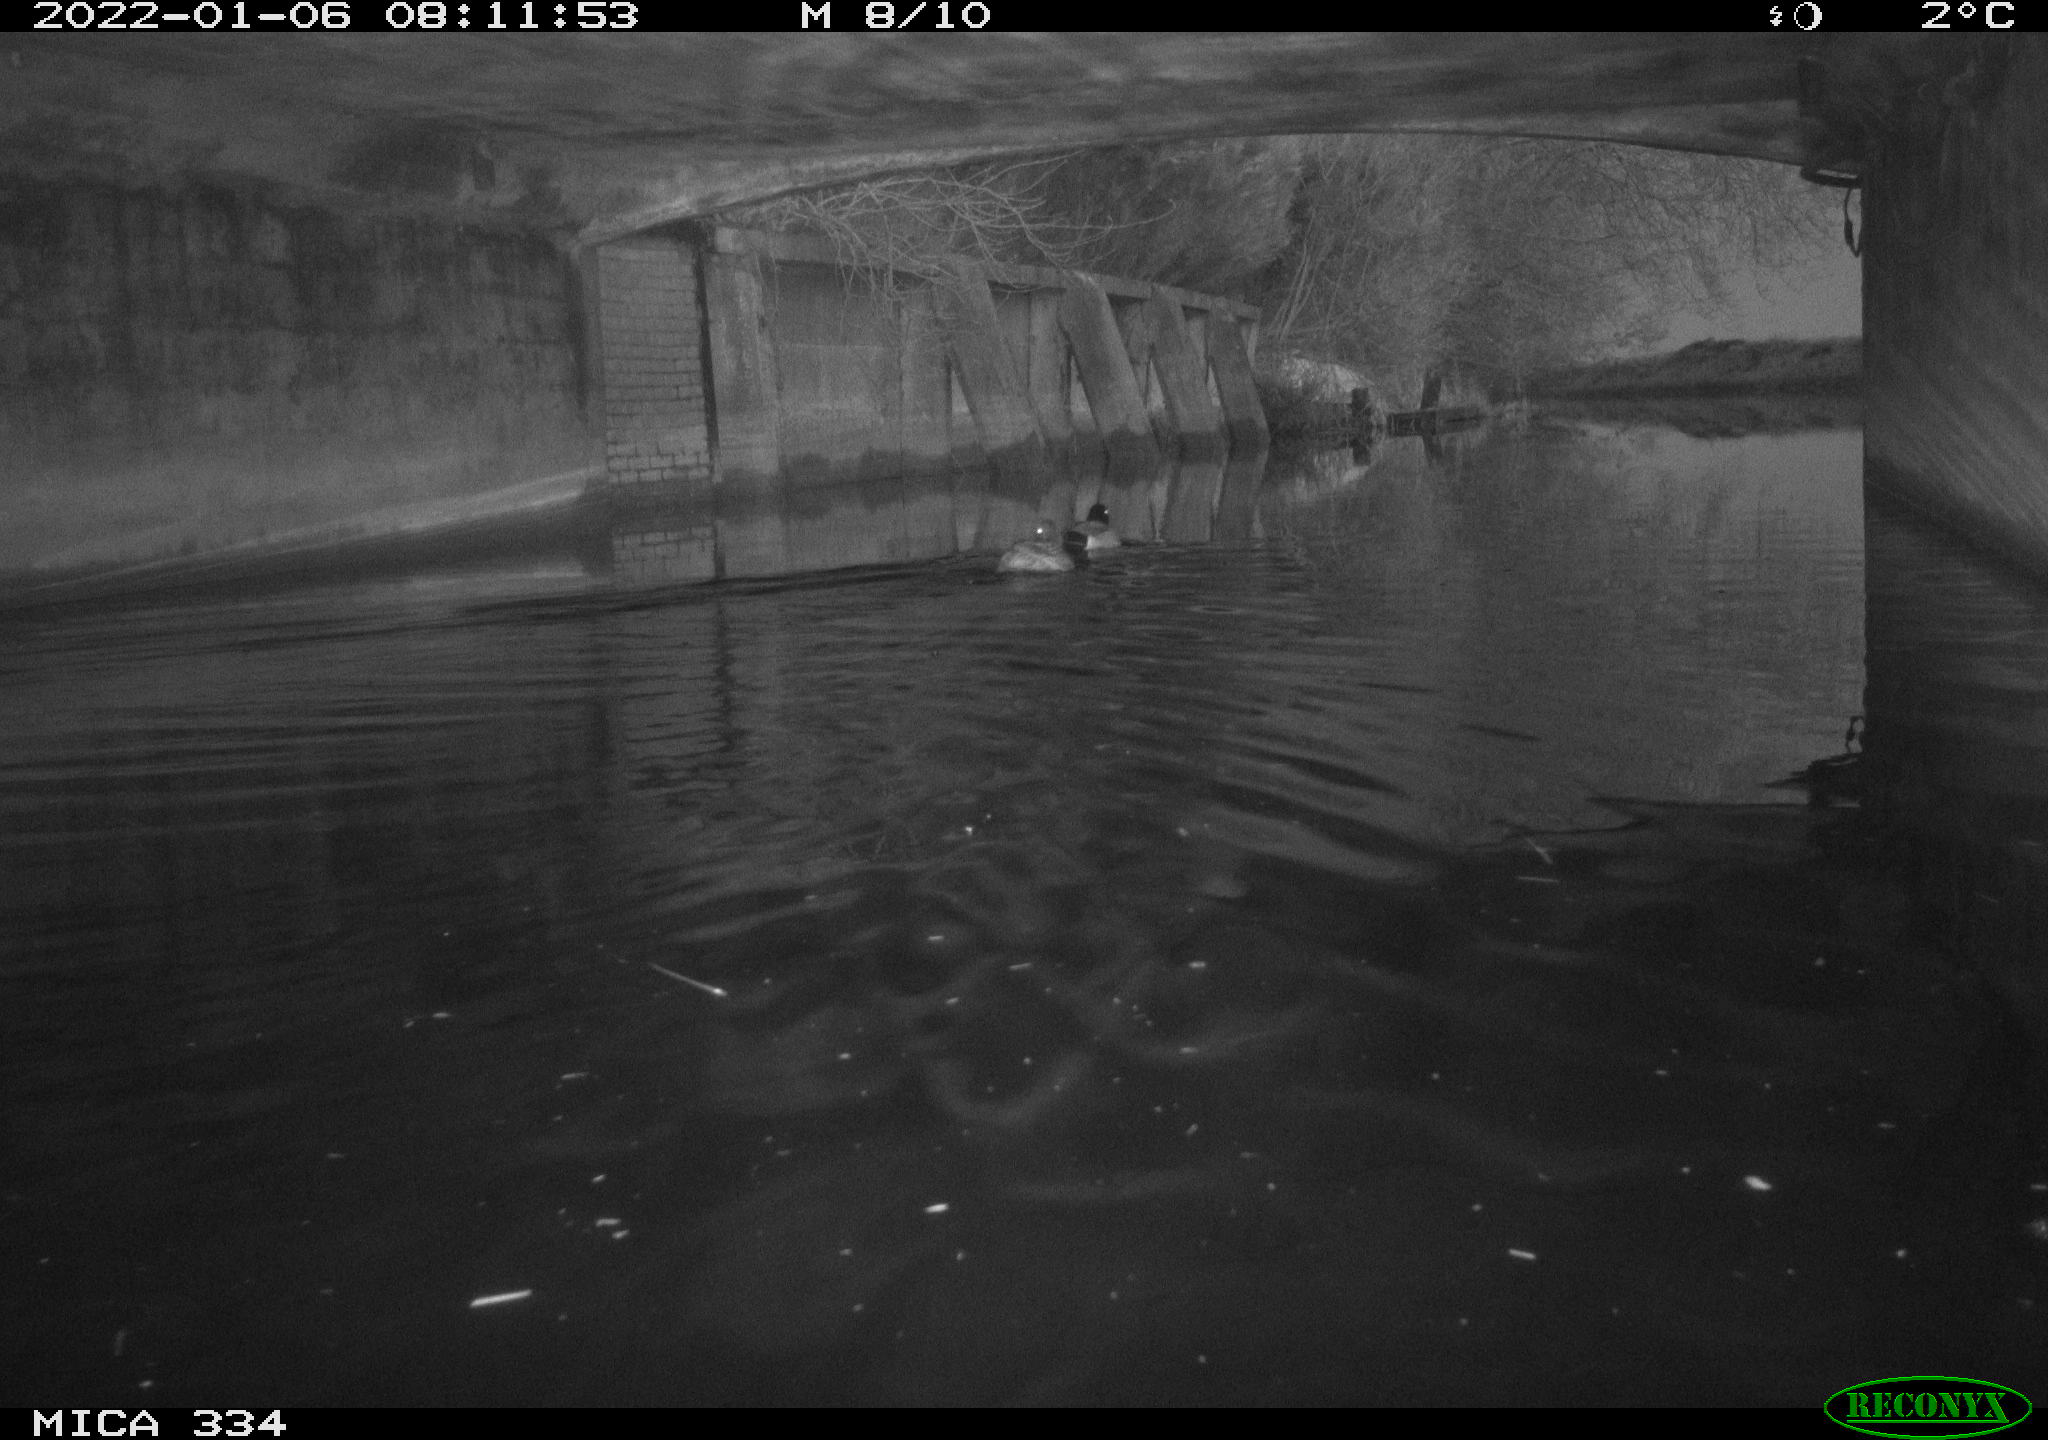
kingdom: Animalia
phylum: Chordata
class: Aves
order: Anseriformes
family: Anatidae
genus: Anas
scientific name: Anas platyrhynchos
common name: Mallard
